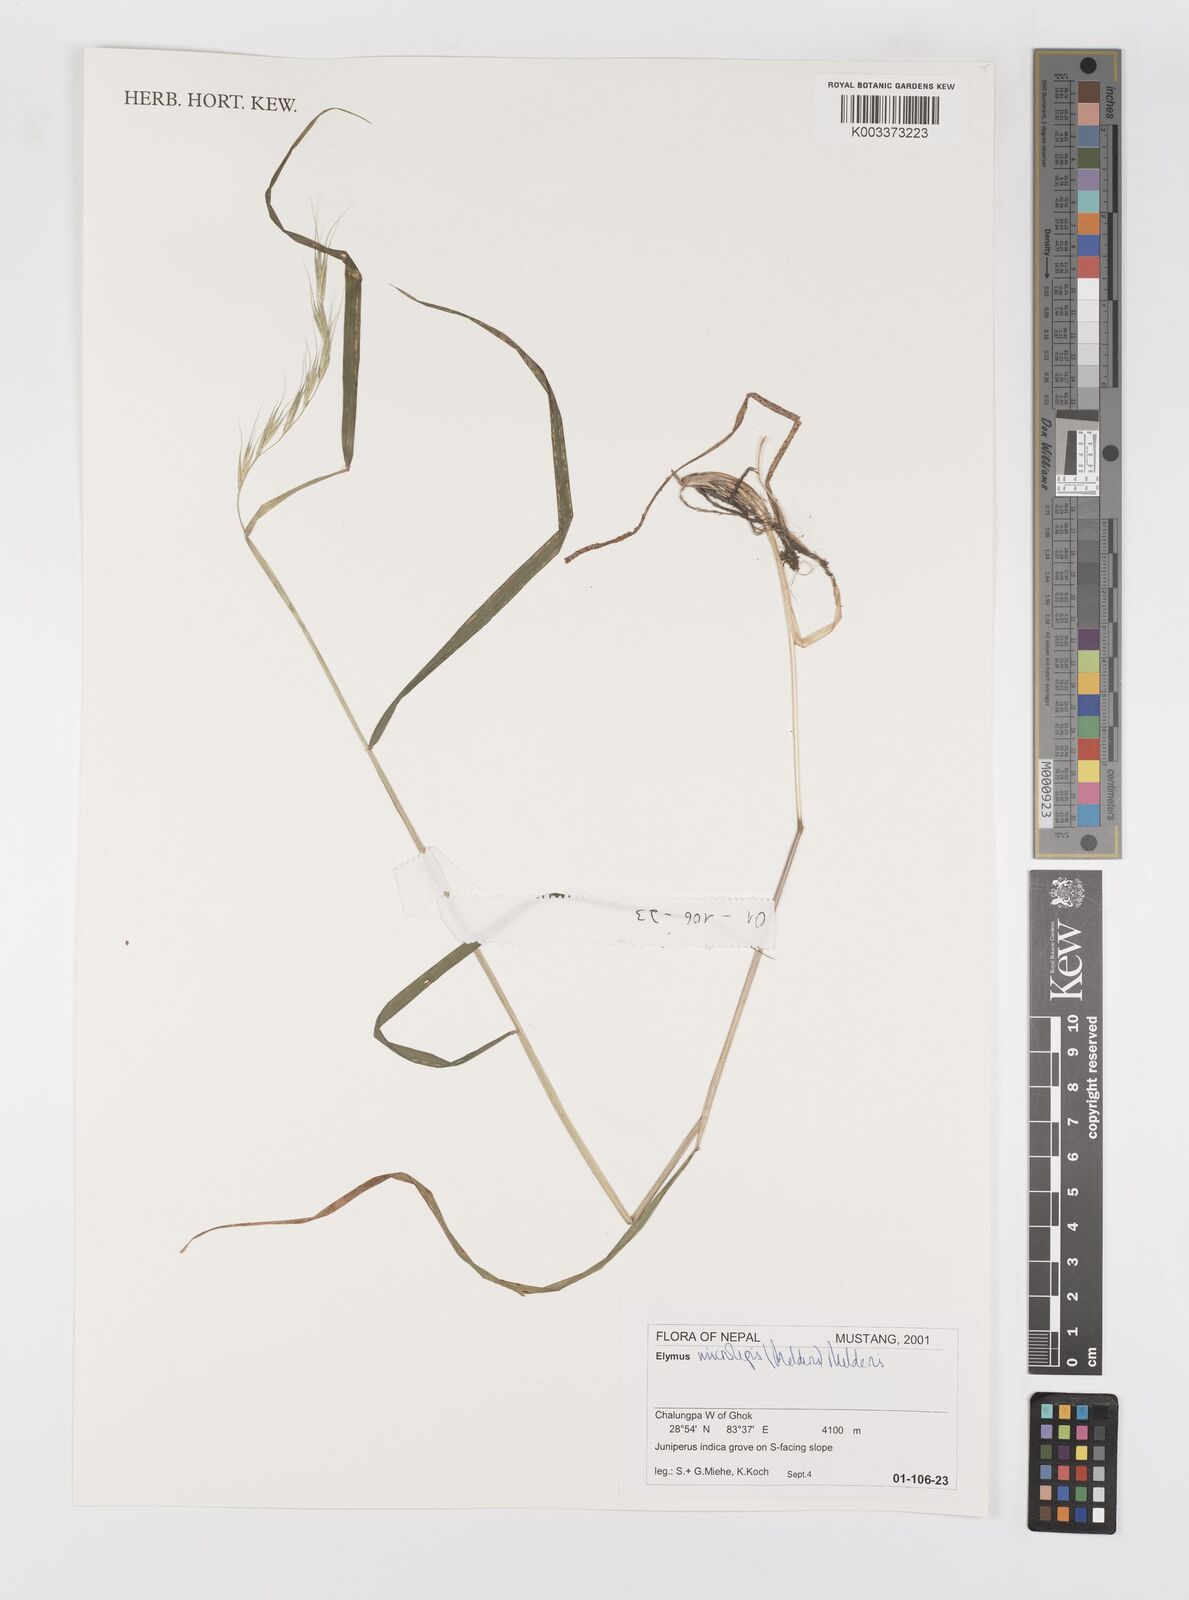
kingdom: Plantae
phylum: Tracheophyta
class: Liliopsida
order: Poales
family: Poaceae
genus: Elymus
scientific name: Elymus antiquus
